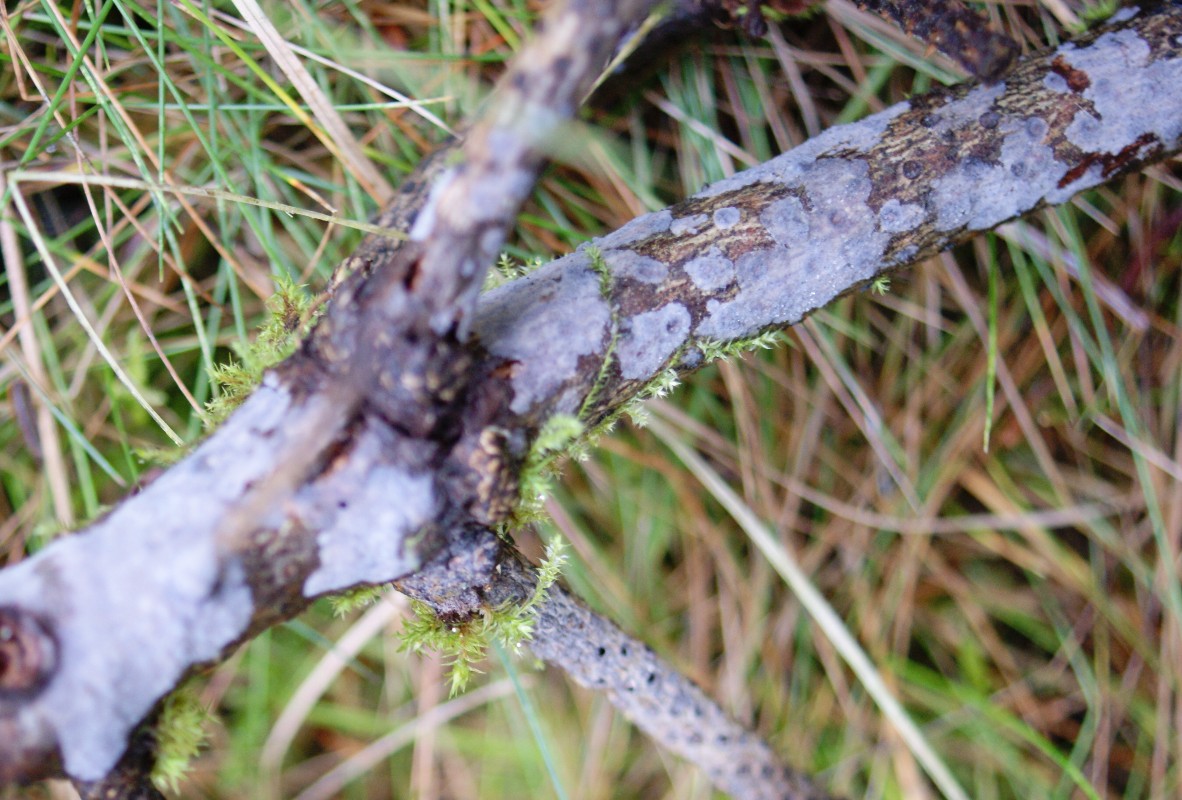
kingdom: Fungi
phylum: Basidiomycota
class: Agaricomycetes
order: Sebacinales
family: Sebacinaceae
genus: Sebacina
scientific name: Sebacina grisea
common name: blågrå bævrehinde
